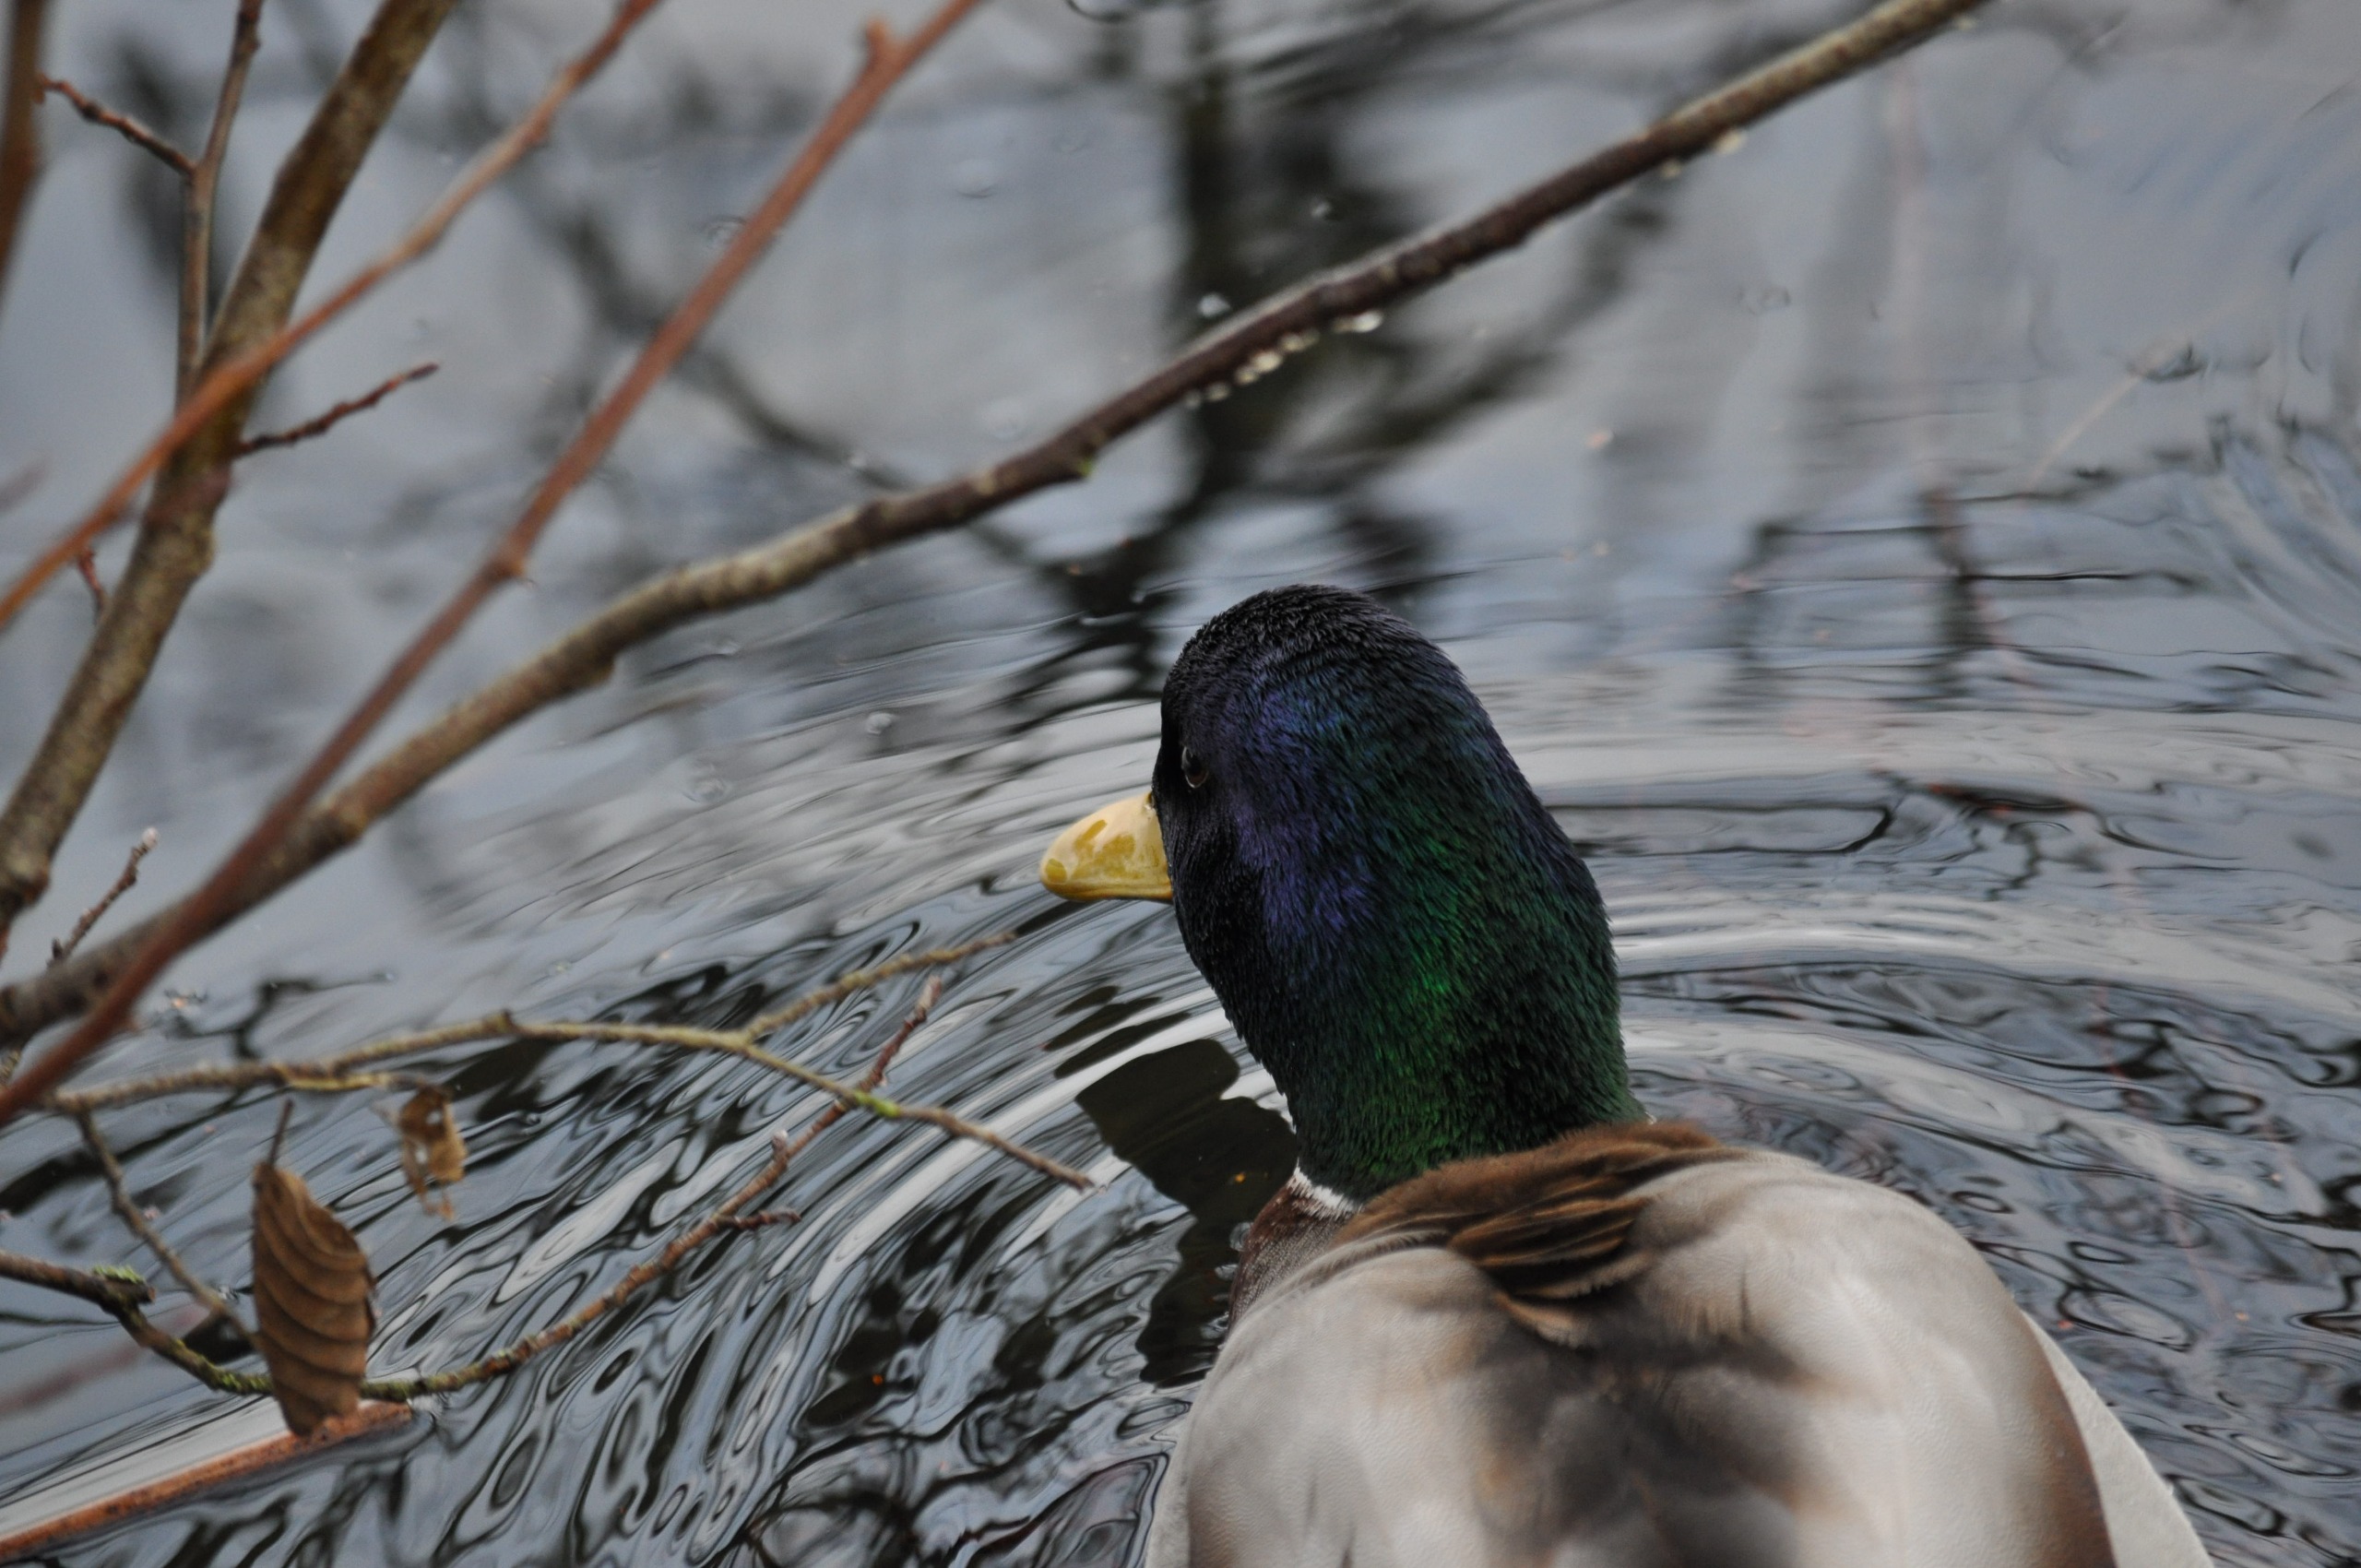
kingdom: Animalia
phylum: Chordata
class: Aves
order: Anseriformes
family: Anatidae
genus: Anas
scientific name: Anas platyrhynchos
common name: Gråand
